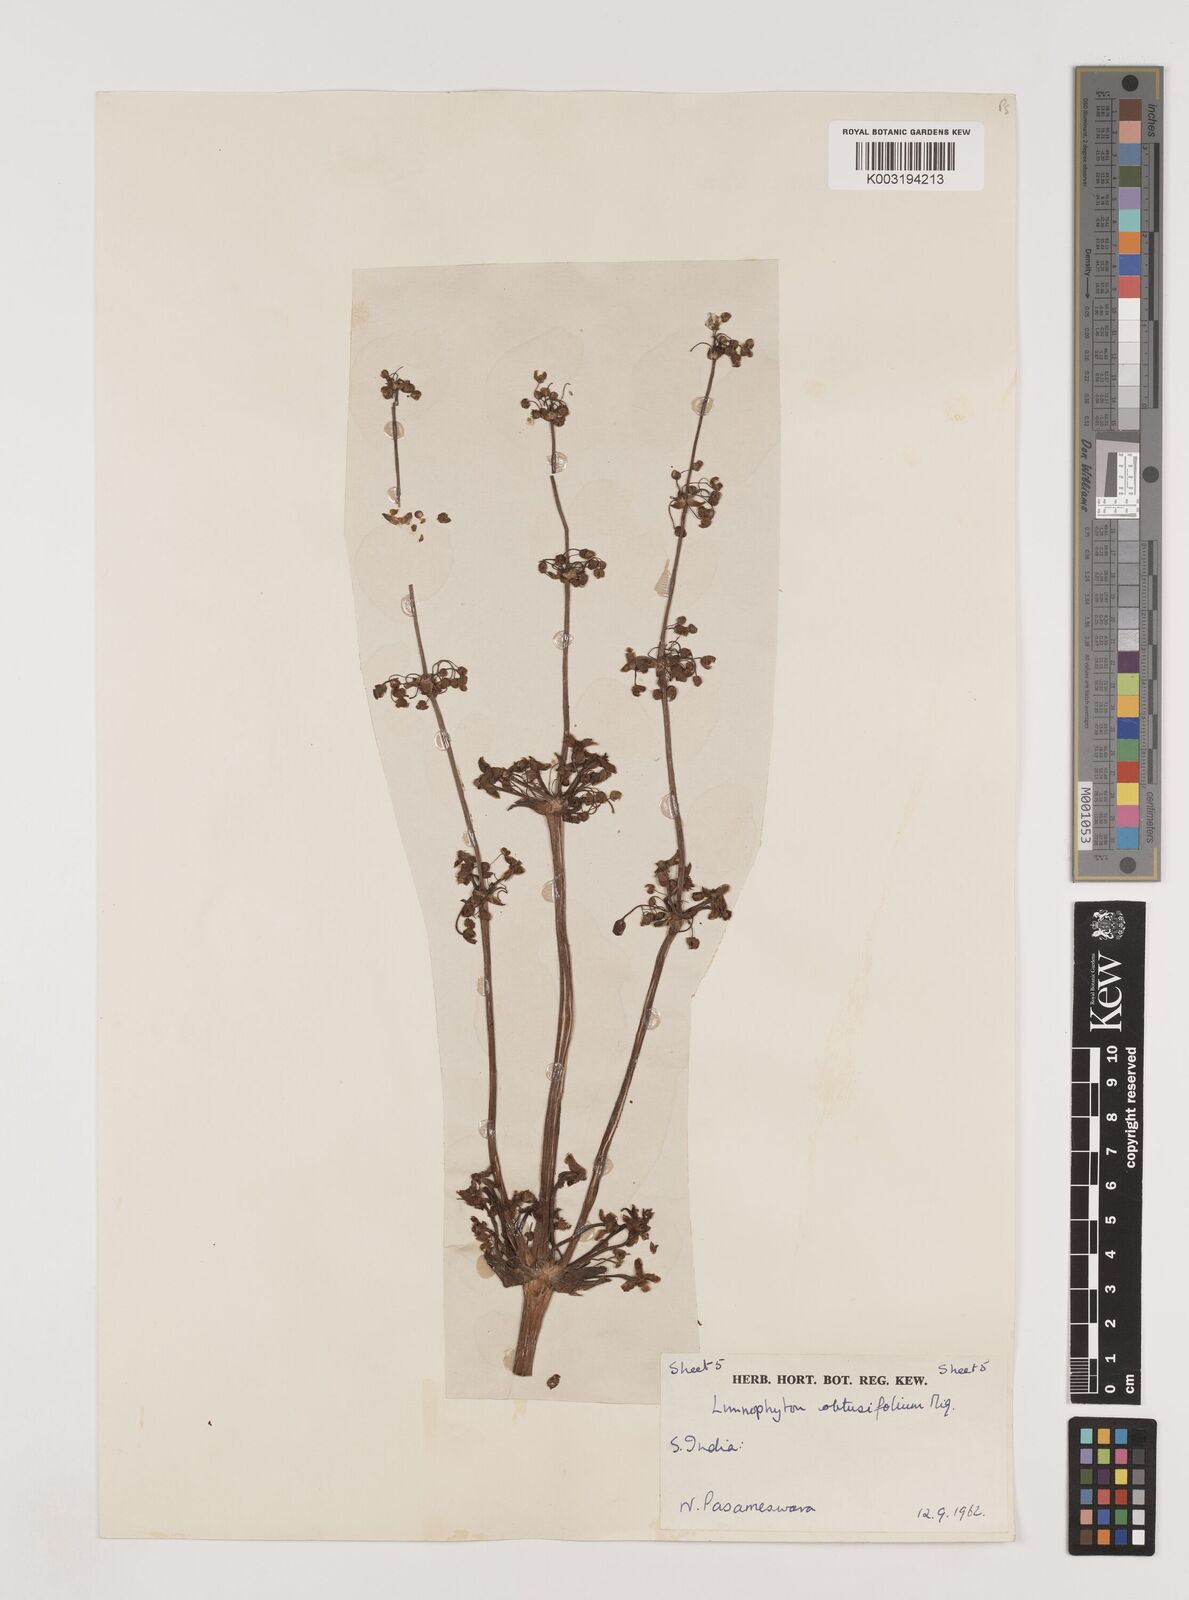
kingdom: Plantae
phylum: Tracheophyta
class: Liliopsida
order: Alismatales
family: Alismataceae
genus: Limnophyton
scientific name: Limnophyton obtusifolium
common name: Arrow head
